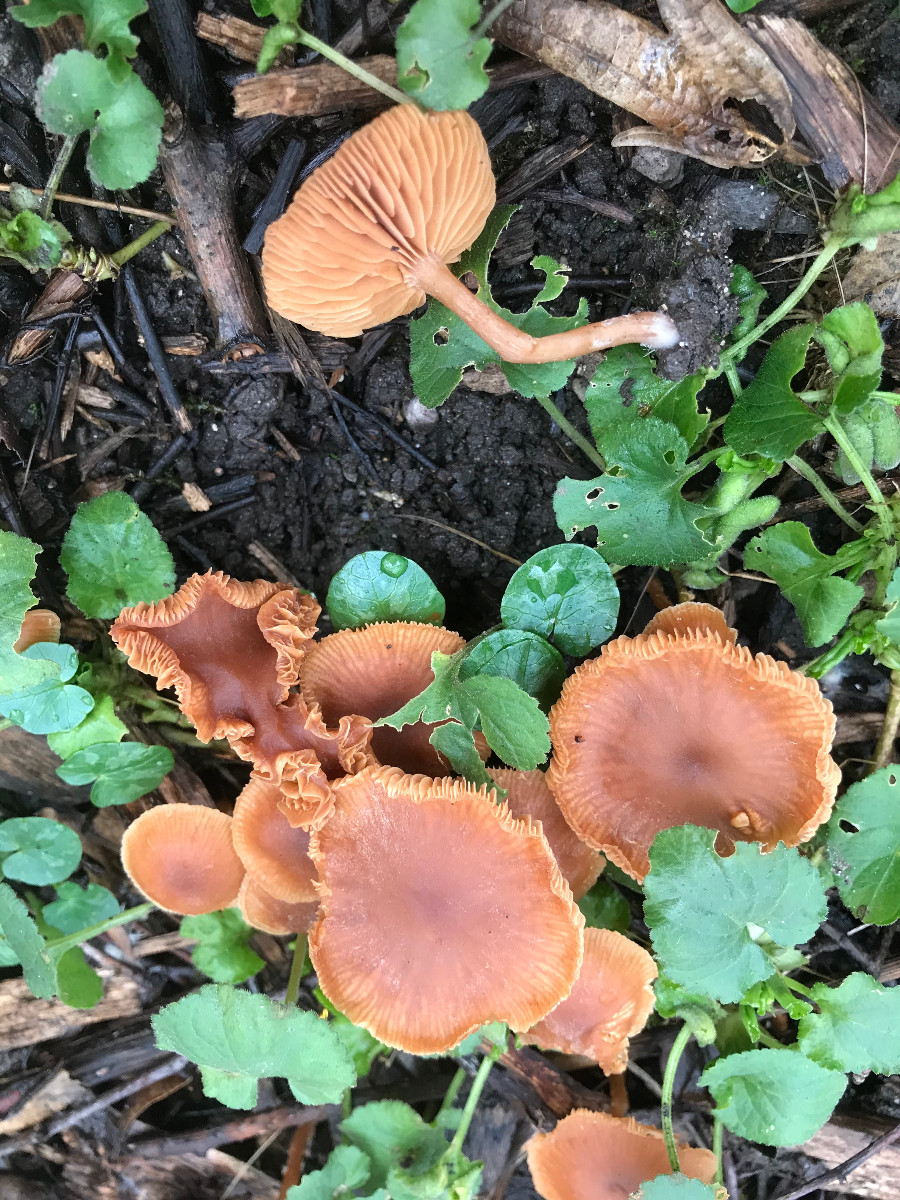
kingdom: Fungi
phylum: Basidiomycota
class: Agaricomycetes
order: Agaricales
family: Hydnangiaceae
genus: Laccaria
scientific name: Laccaria laccata
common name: rød ametysthat
